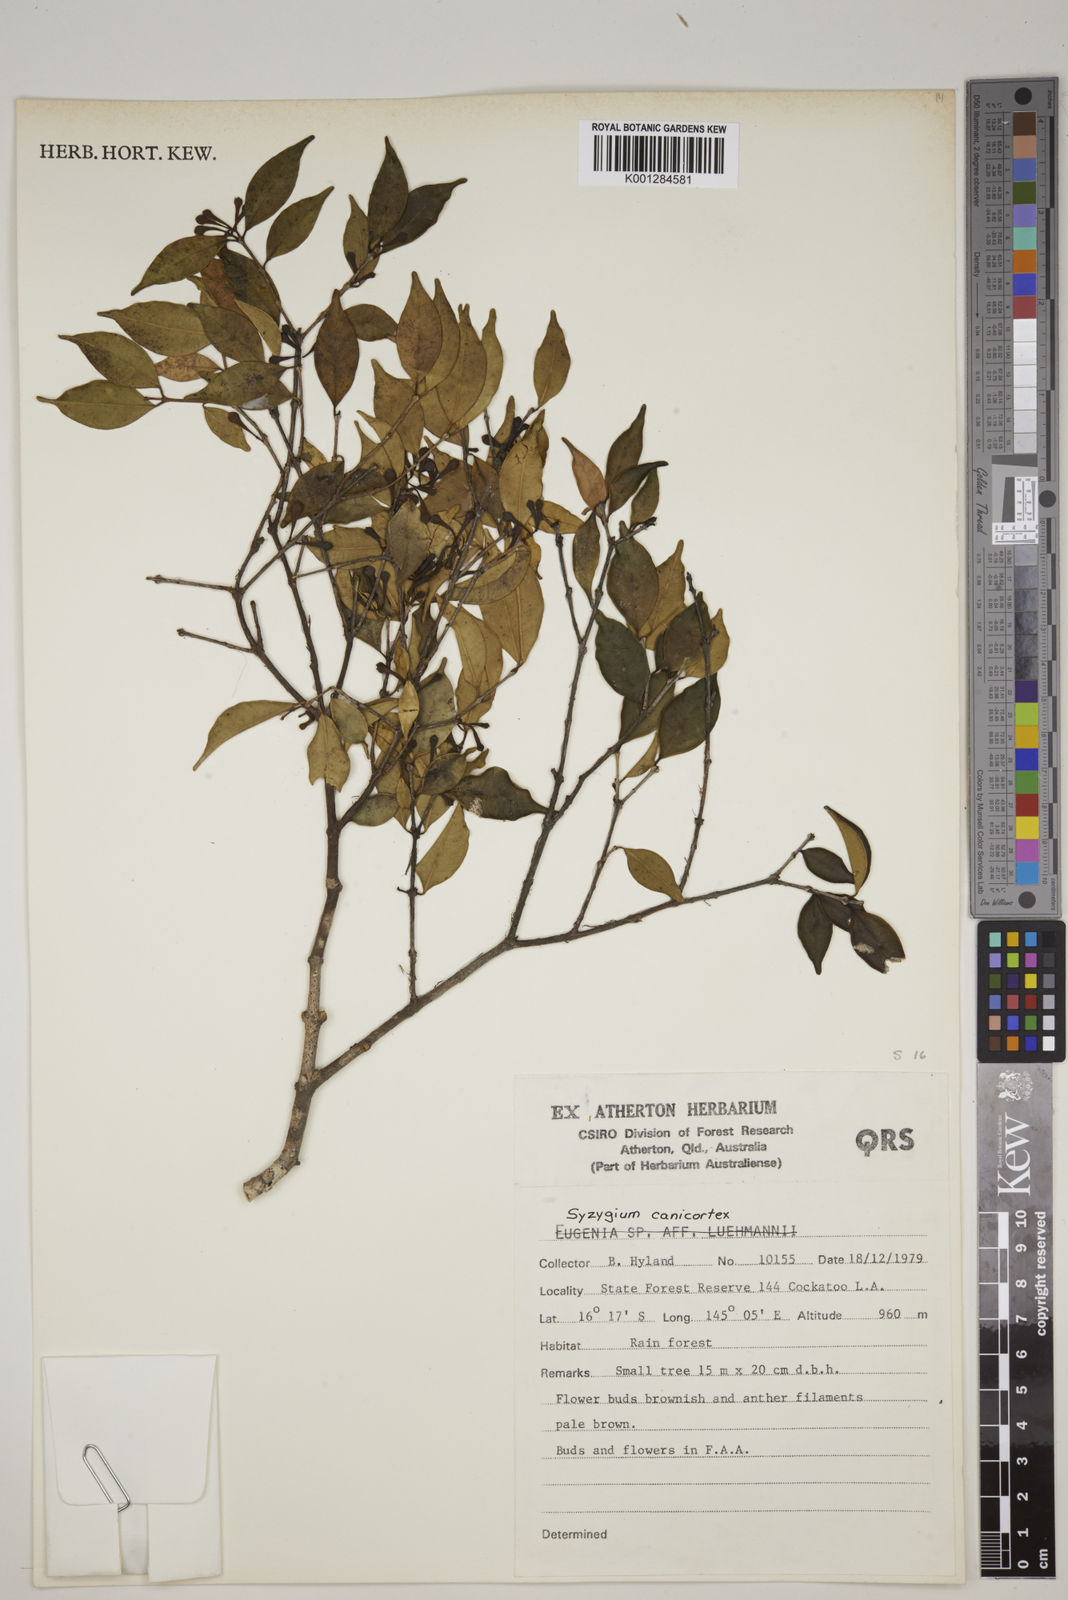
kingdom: Plantae
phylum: Tracheophyta
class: Magnoliopsida
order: Myrtales
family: Myrtaceae
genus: Syzygium
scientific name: Syzygium canicortex
